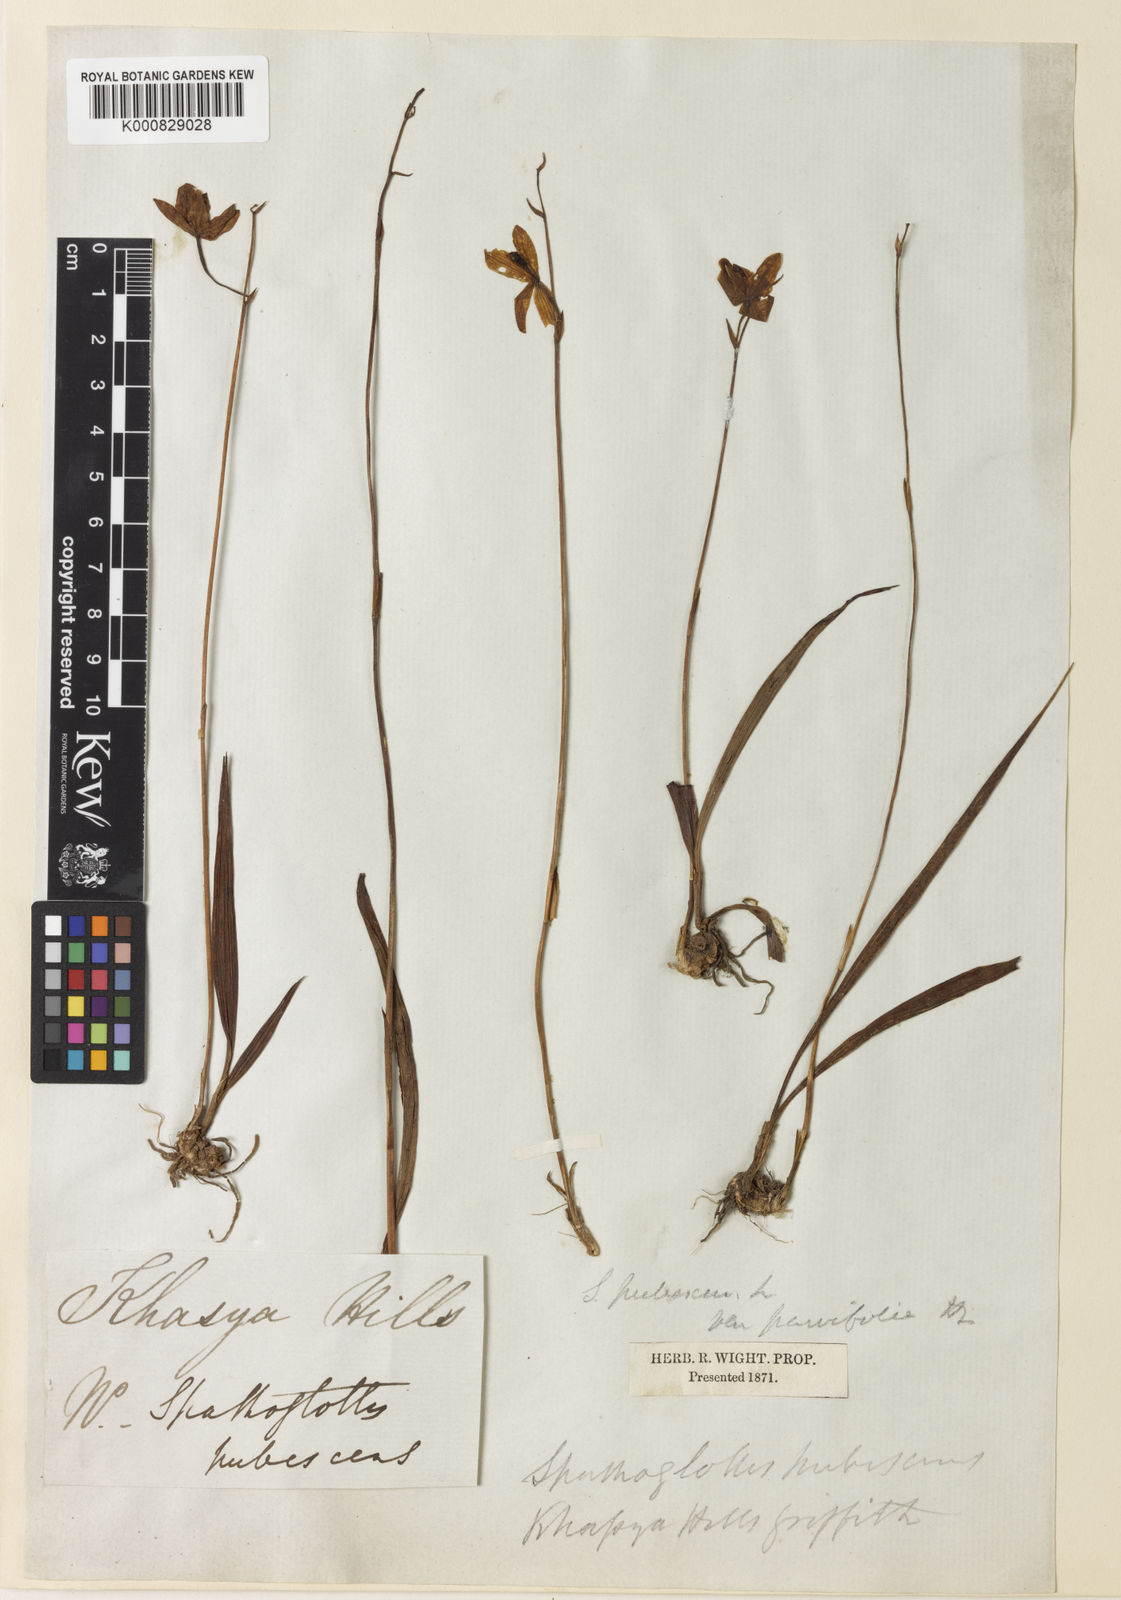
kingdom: Plantae
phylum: Tracheophyta
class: Liliopsida
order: Asparagales
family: Orchidaceae
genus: Spathoglottis
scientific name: Spathoglottis pubescens
